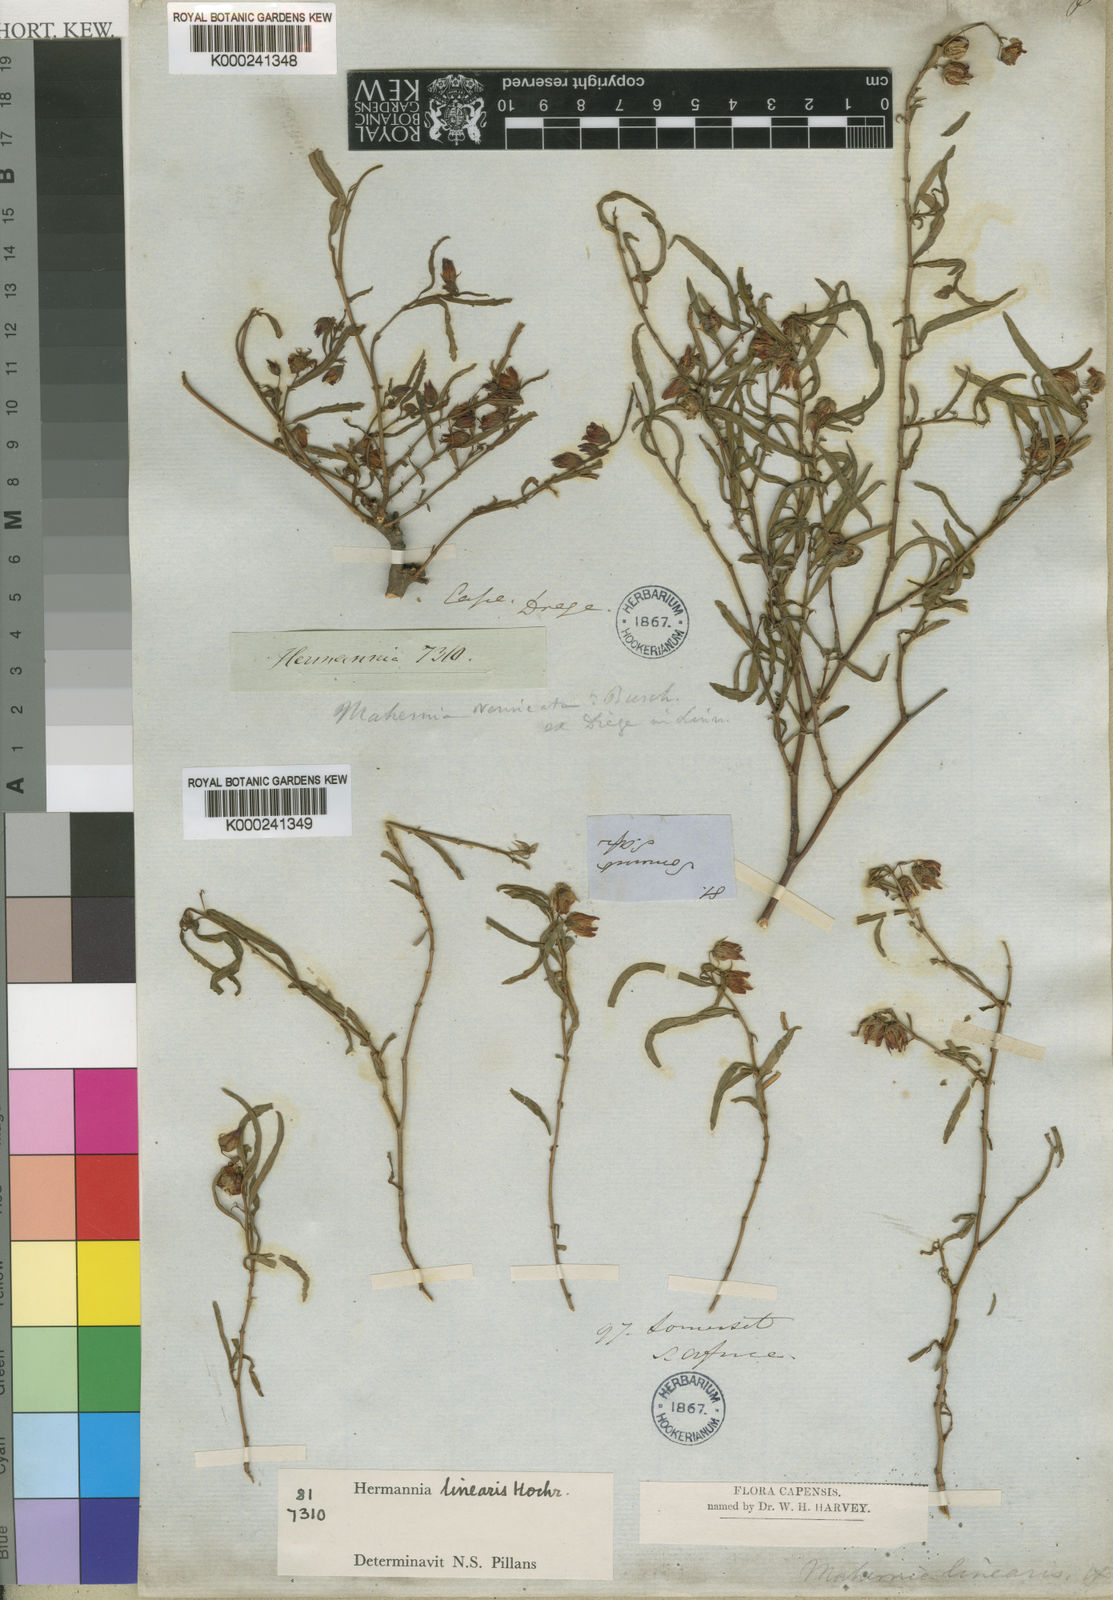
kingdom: Plantae
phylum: Tracheophyta
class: Magnoliopsida
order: Malvales
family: Malvaceae
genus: Hermannia
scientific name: Hermannia glabrata
